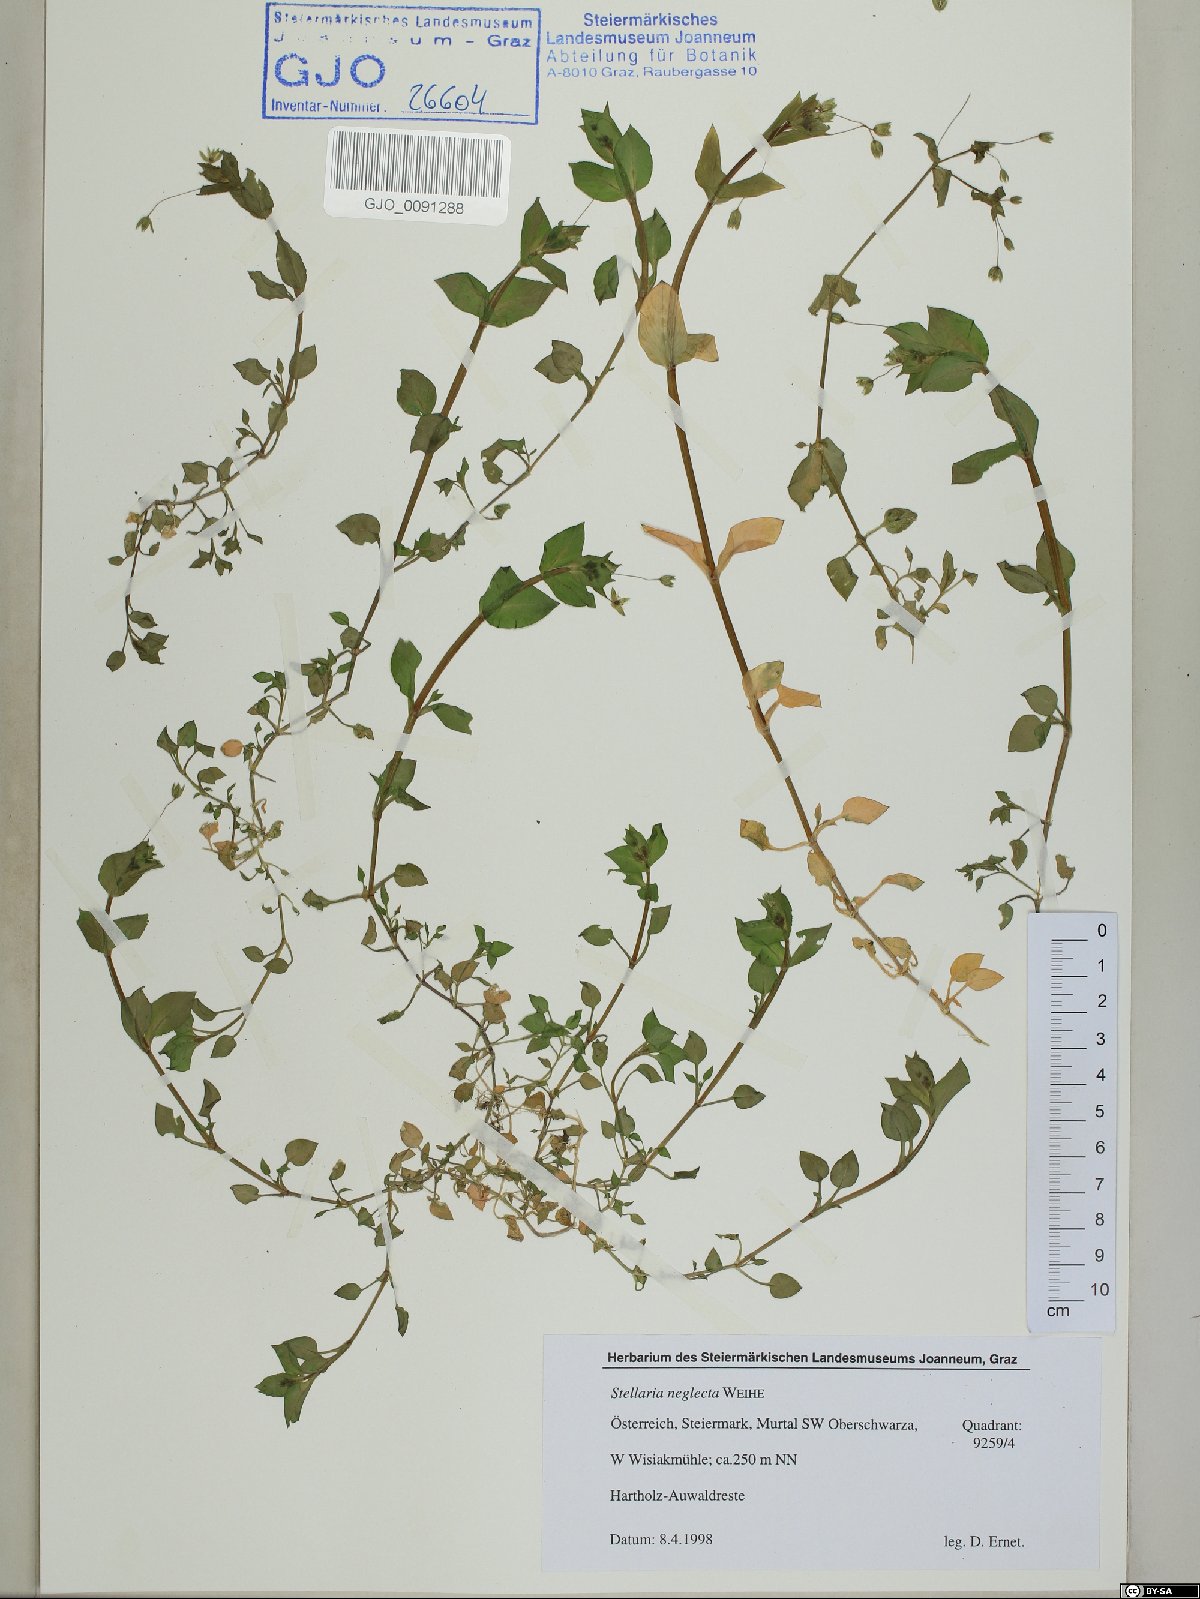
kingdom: Plantae
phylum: Tracheophyta
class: Magnoliopsida
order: Caryophyllales
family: Caryophyllaceae
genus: Stellaria
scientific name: Stellaria neglecta
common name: Greater chickweed
